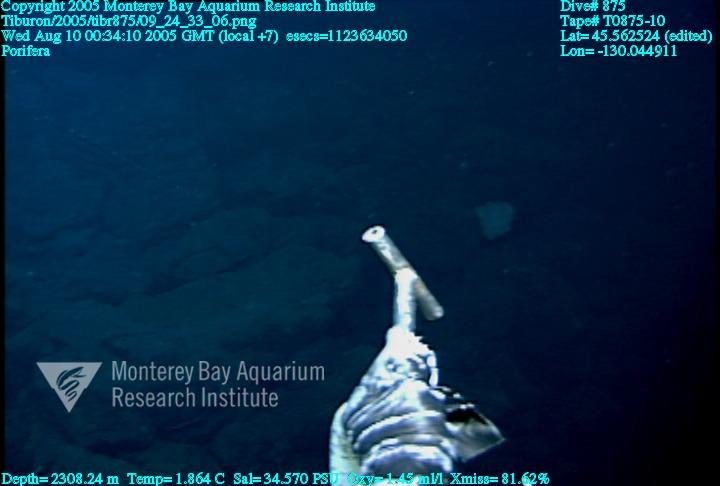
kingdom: Animalia
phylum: Porifera
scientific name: Porifera
